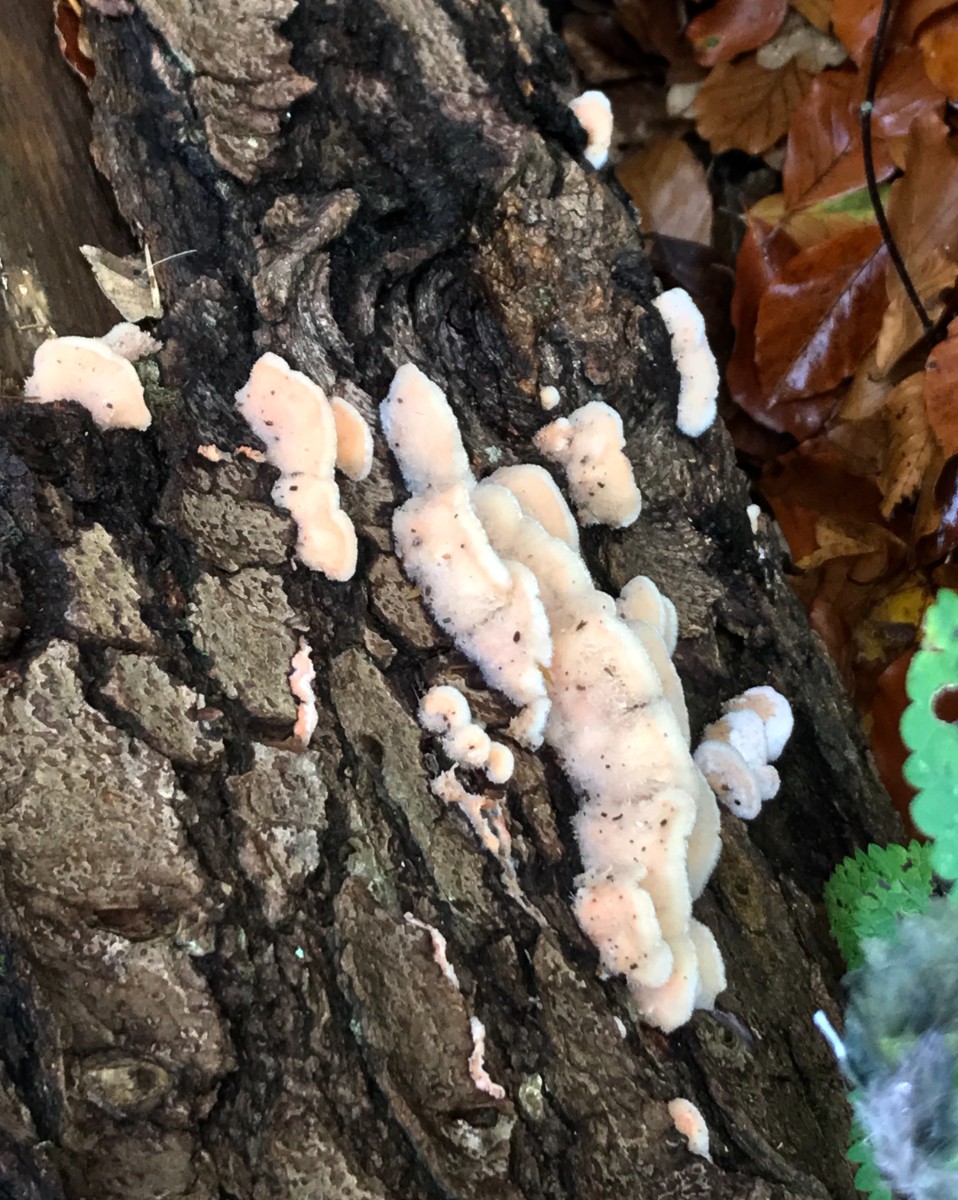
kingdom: Fungi
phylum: Basidiomycota
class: Agaricomycetes
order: Polyporales
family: Meruliaceae
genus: Phlebia
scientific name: Phlebia tremellosa
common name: bævrende åresvamp
